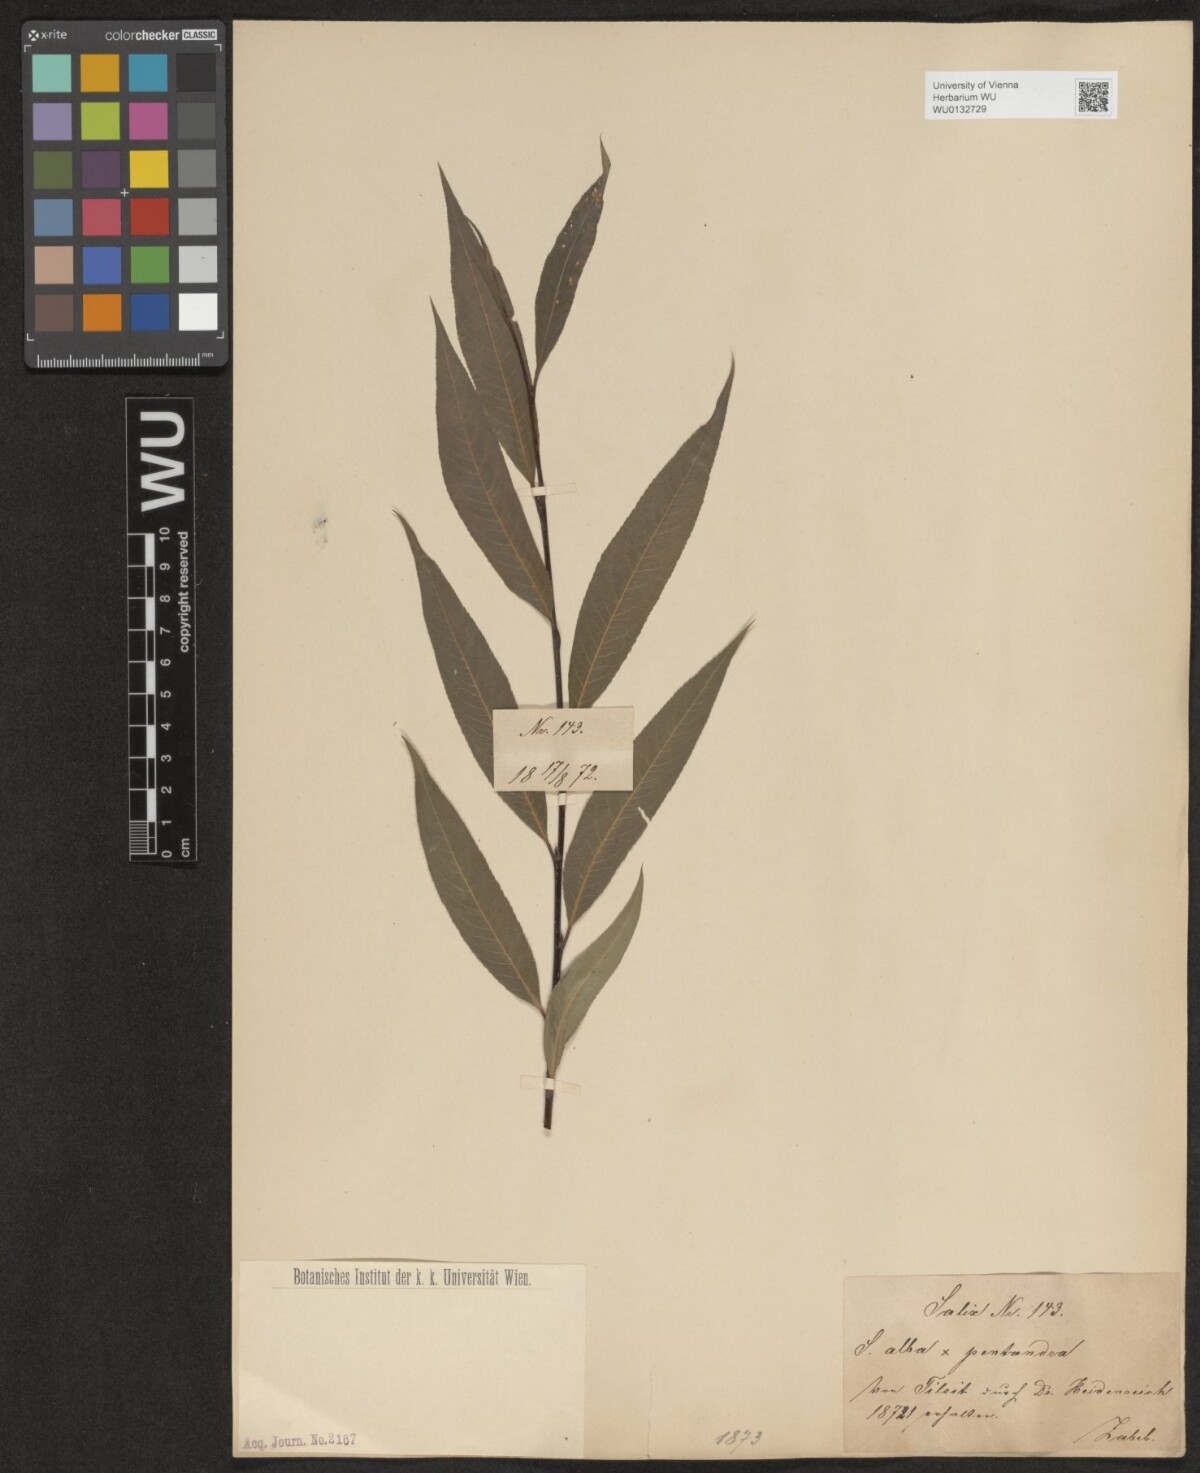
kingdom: Plantae
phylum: Tracheophyta
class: Magnoliopsida
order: Malpighiales
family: Salicaceae
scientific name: Salicaceae
